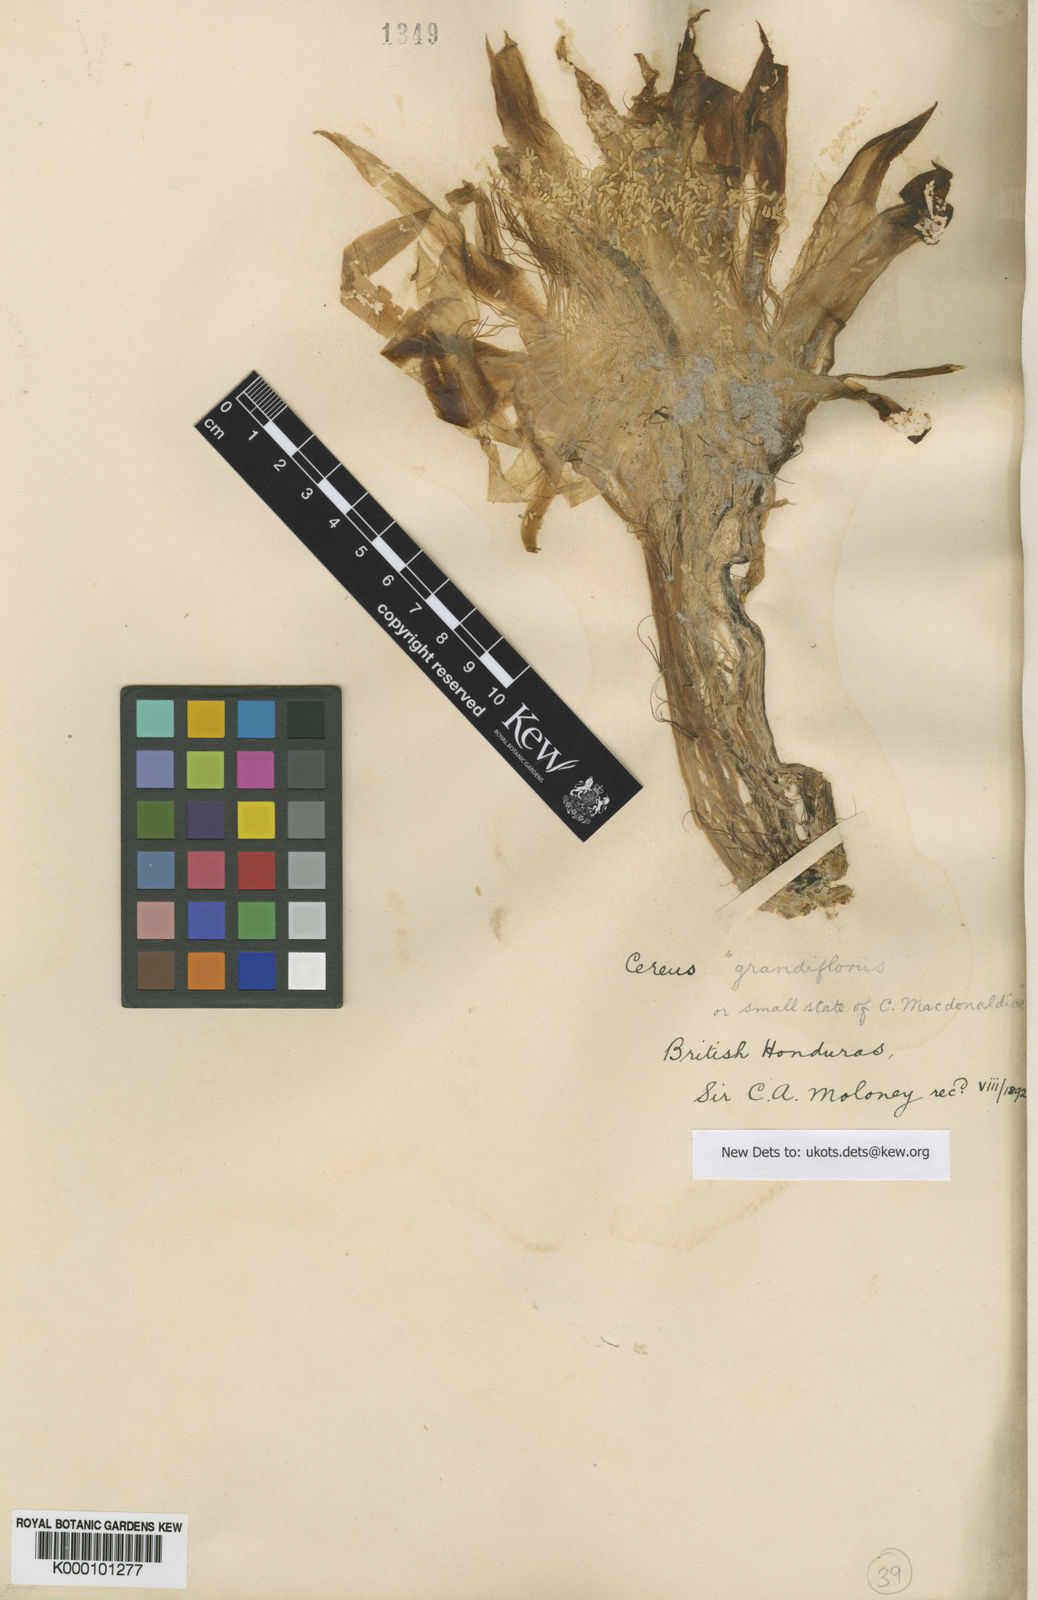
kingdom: Plantae
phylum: Tracheophyta
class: Magnoliopsida
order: Caryophyllales
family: Cactaceae
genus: Selenicereus
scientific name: Selenicereus grandiflorus
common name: Queen of the night
